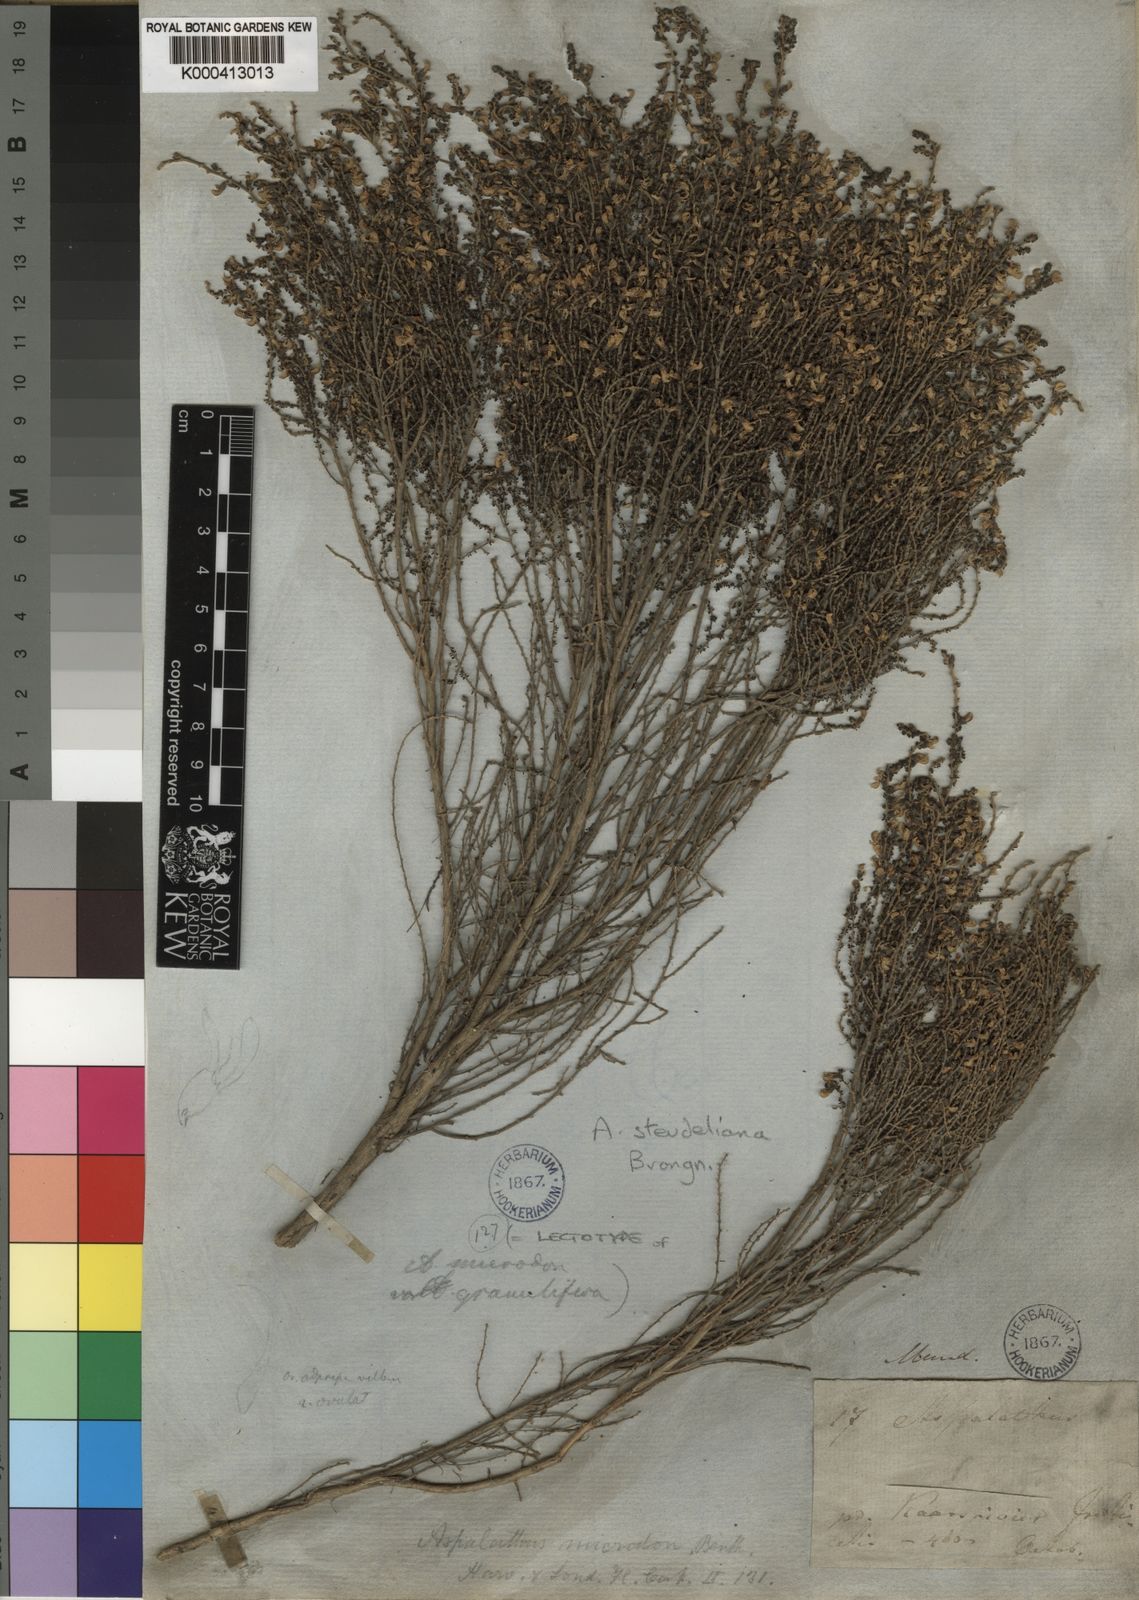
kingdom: Plantae
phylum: Tracheophyta
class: Magnoliopsida
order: Fabales
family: Fabaceae
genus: Aspalathus
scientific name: Aspalathus mundiana
